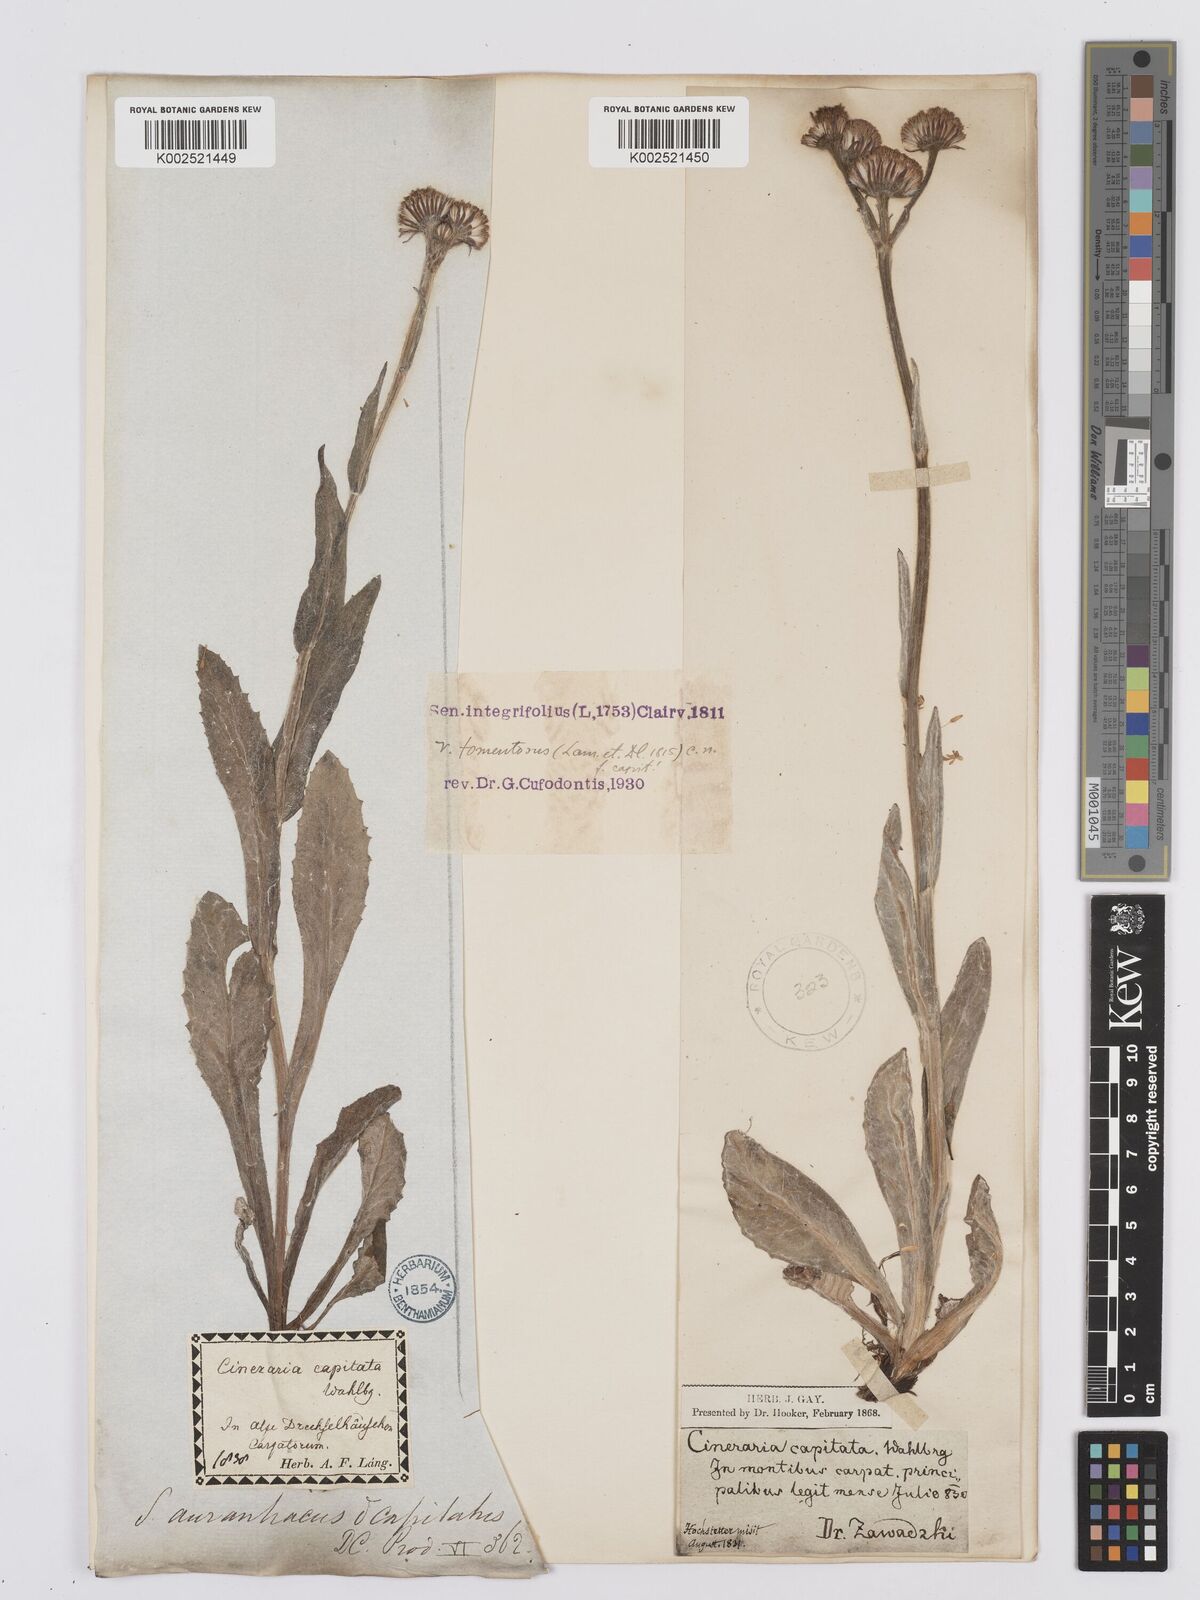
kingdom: Plantae
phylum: Tracheophyta
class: Magnoliopsida
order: Asterales
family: Asteraceae
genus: Tephroseris
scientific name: Tephroseris integrifolia
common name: Field fleawort
